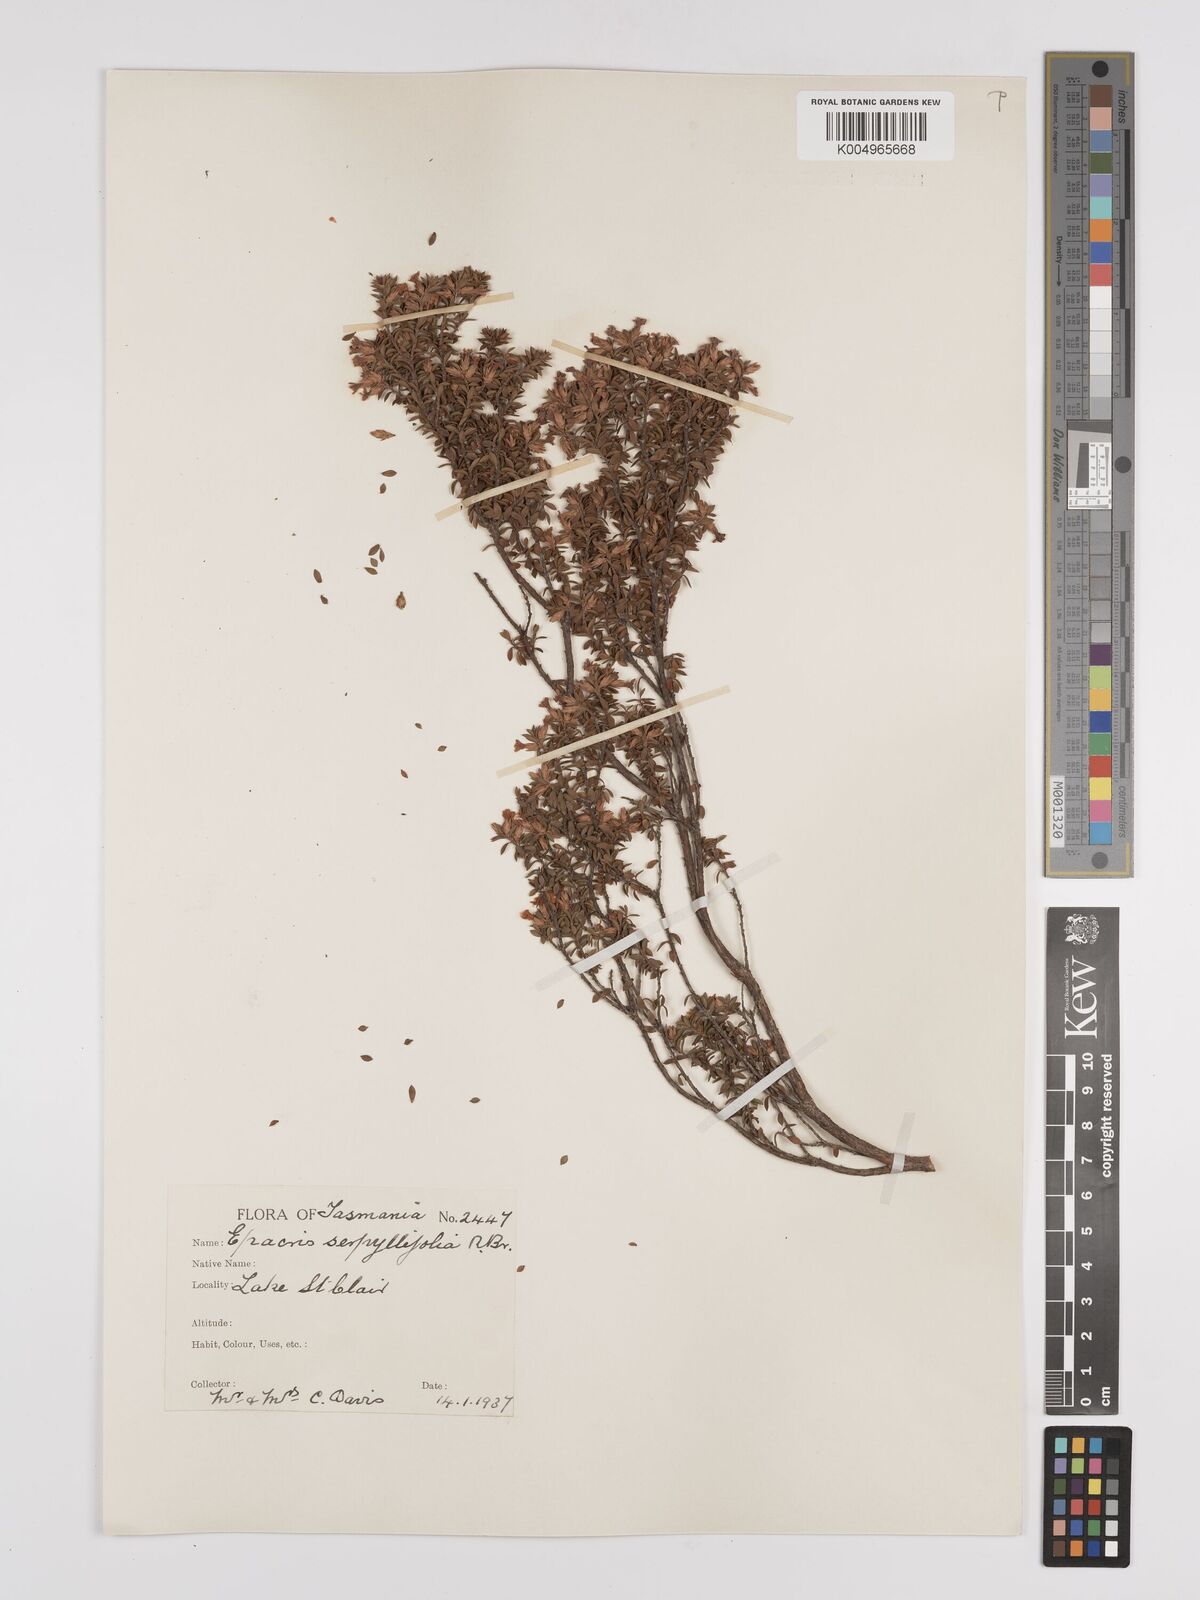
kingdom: Plantae
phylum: Tracheophyta
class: Magnoliopsida
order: Ericales
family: Ericaceae
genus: Epacris
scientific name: Epacris serpyllifolia
